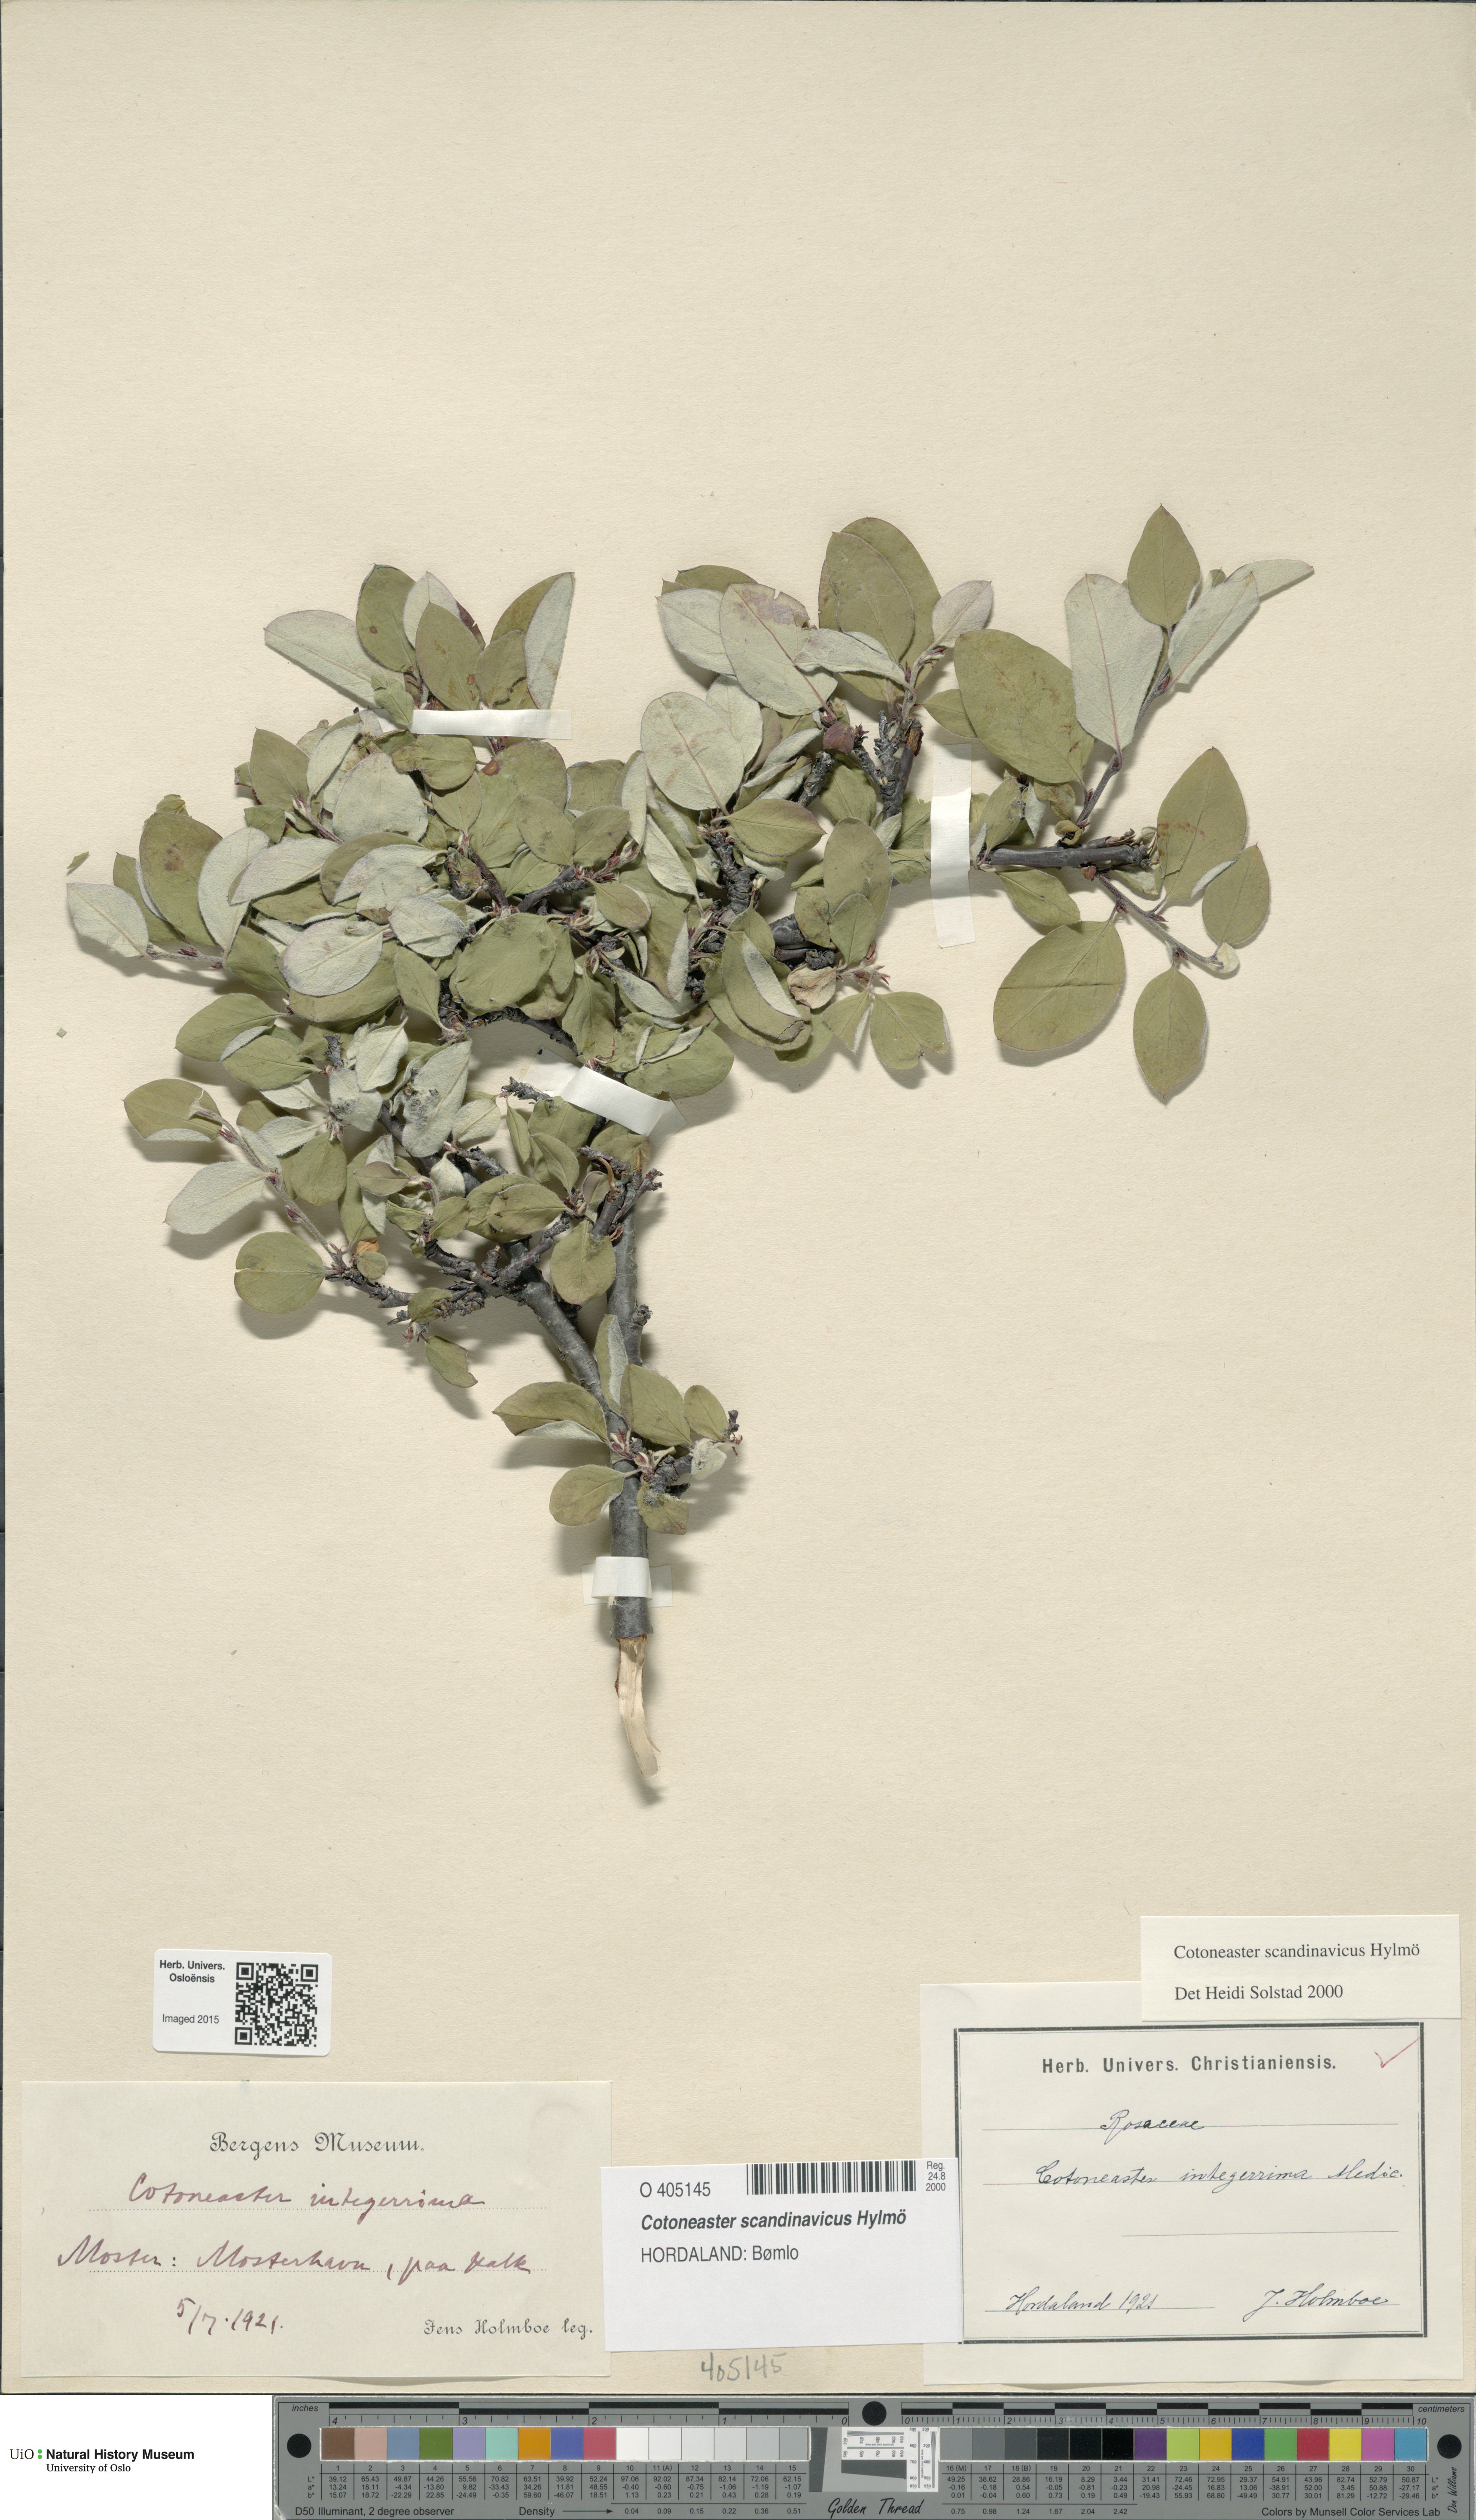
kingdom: Plantae
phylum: Tracheophyta
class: Magnoliopsida
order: Rosales
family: Rosaceae
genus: Cotoneaster
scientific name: Cotoneaster integerrimus
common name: Wild cotoneaster
